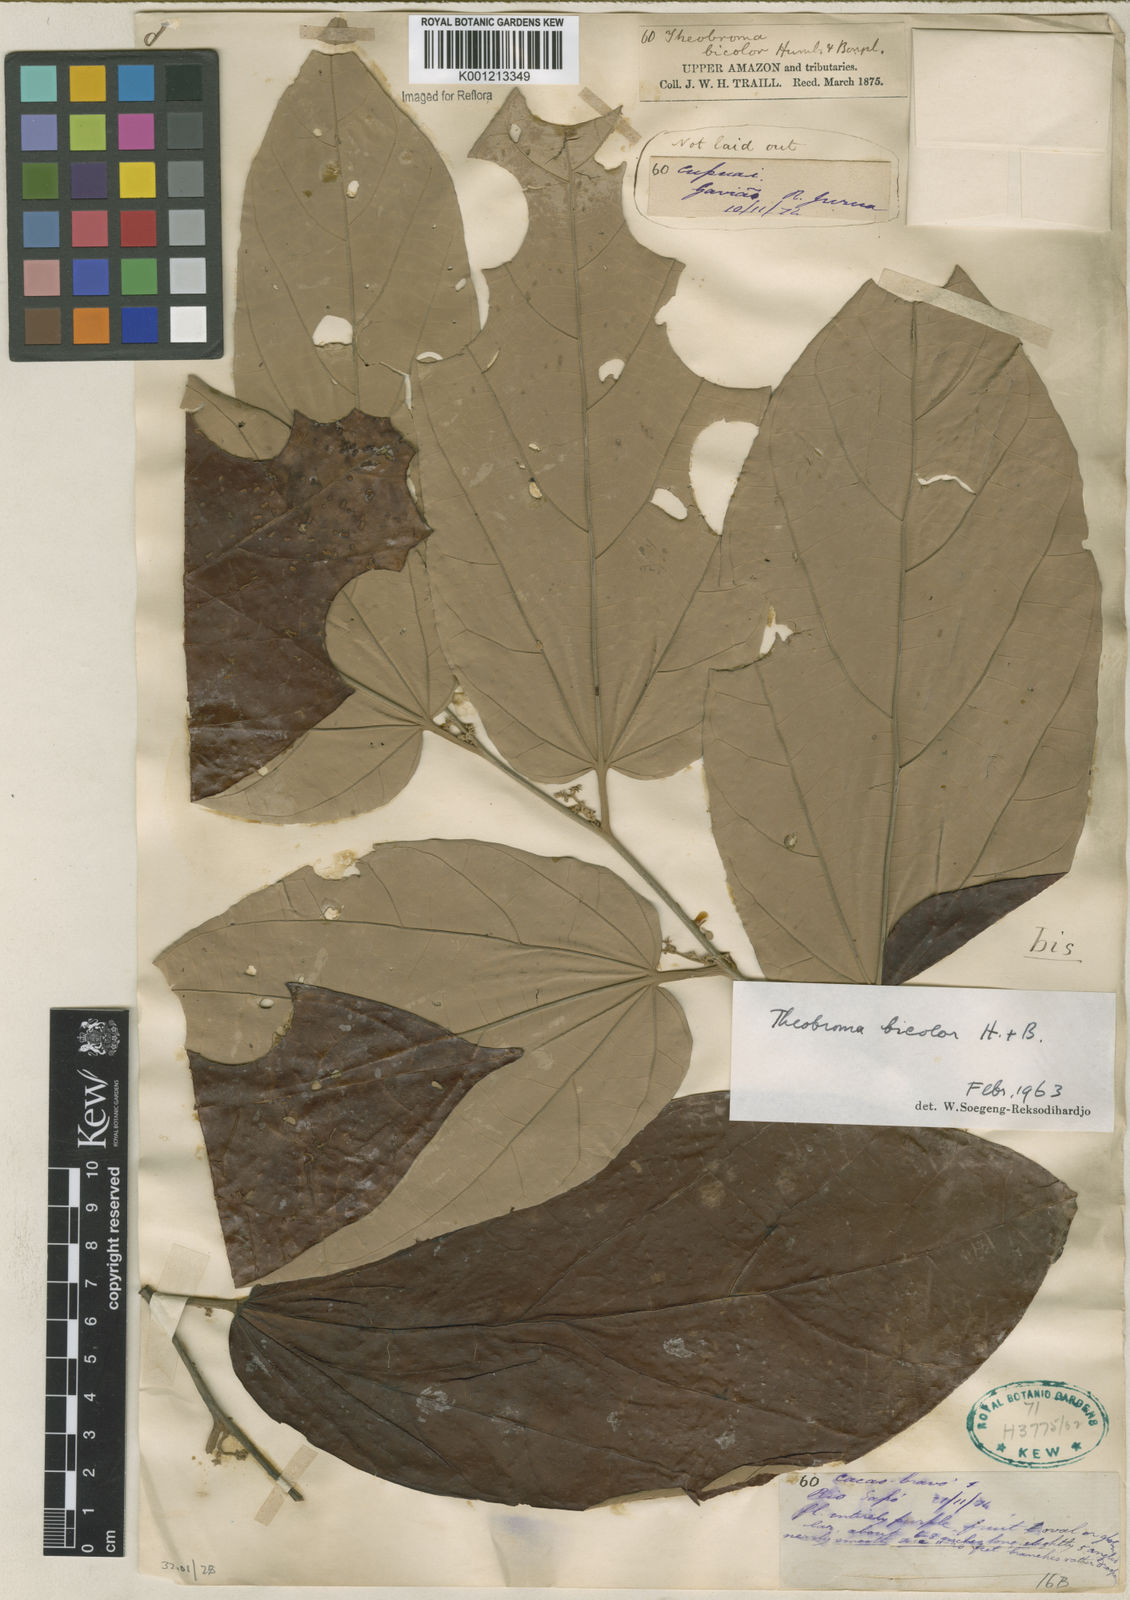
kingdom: Plantae
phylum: Tracheophyta
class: Magnoliopsida
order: Malvales
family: Malvaceae
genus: Theobroma
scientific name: Theobroma
